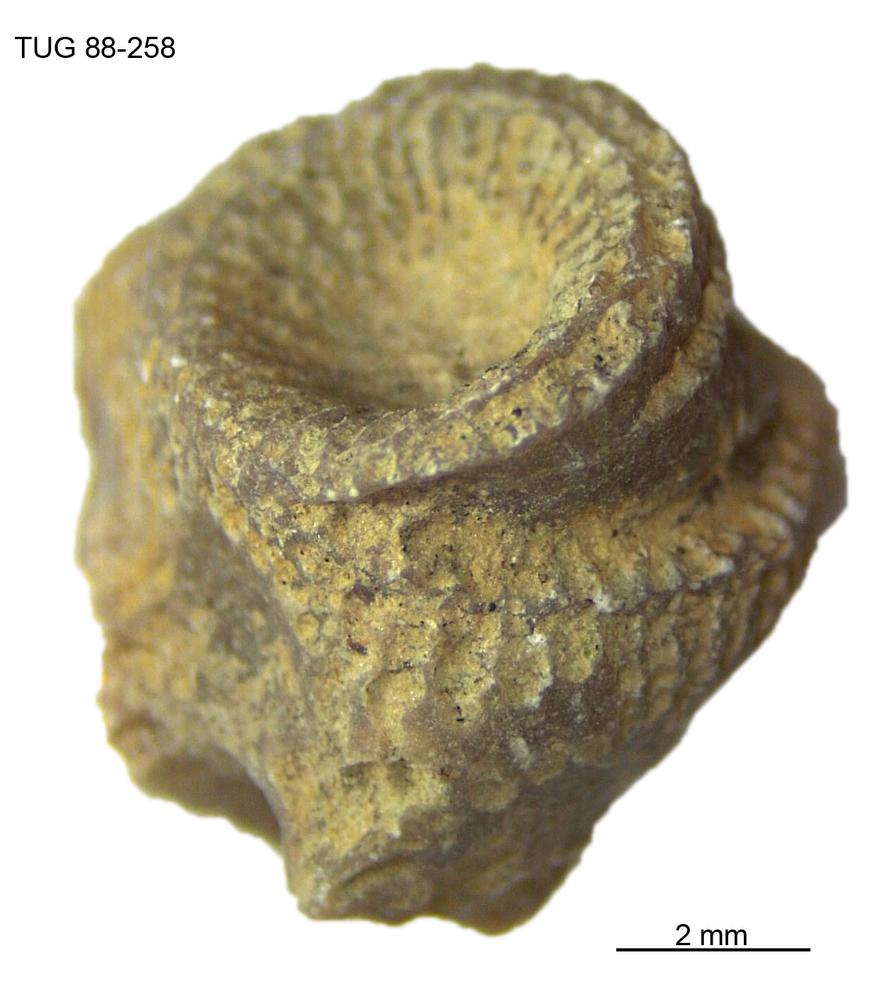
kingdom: Animalia
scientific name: Animalia
